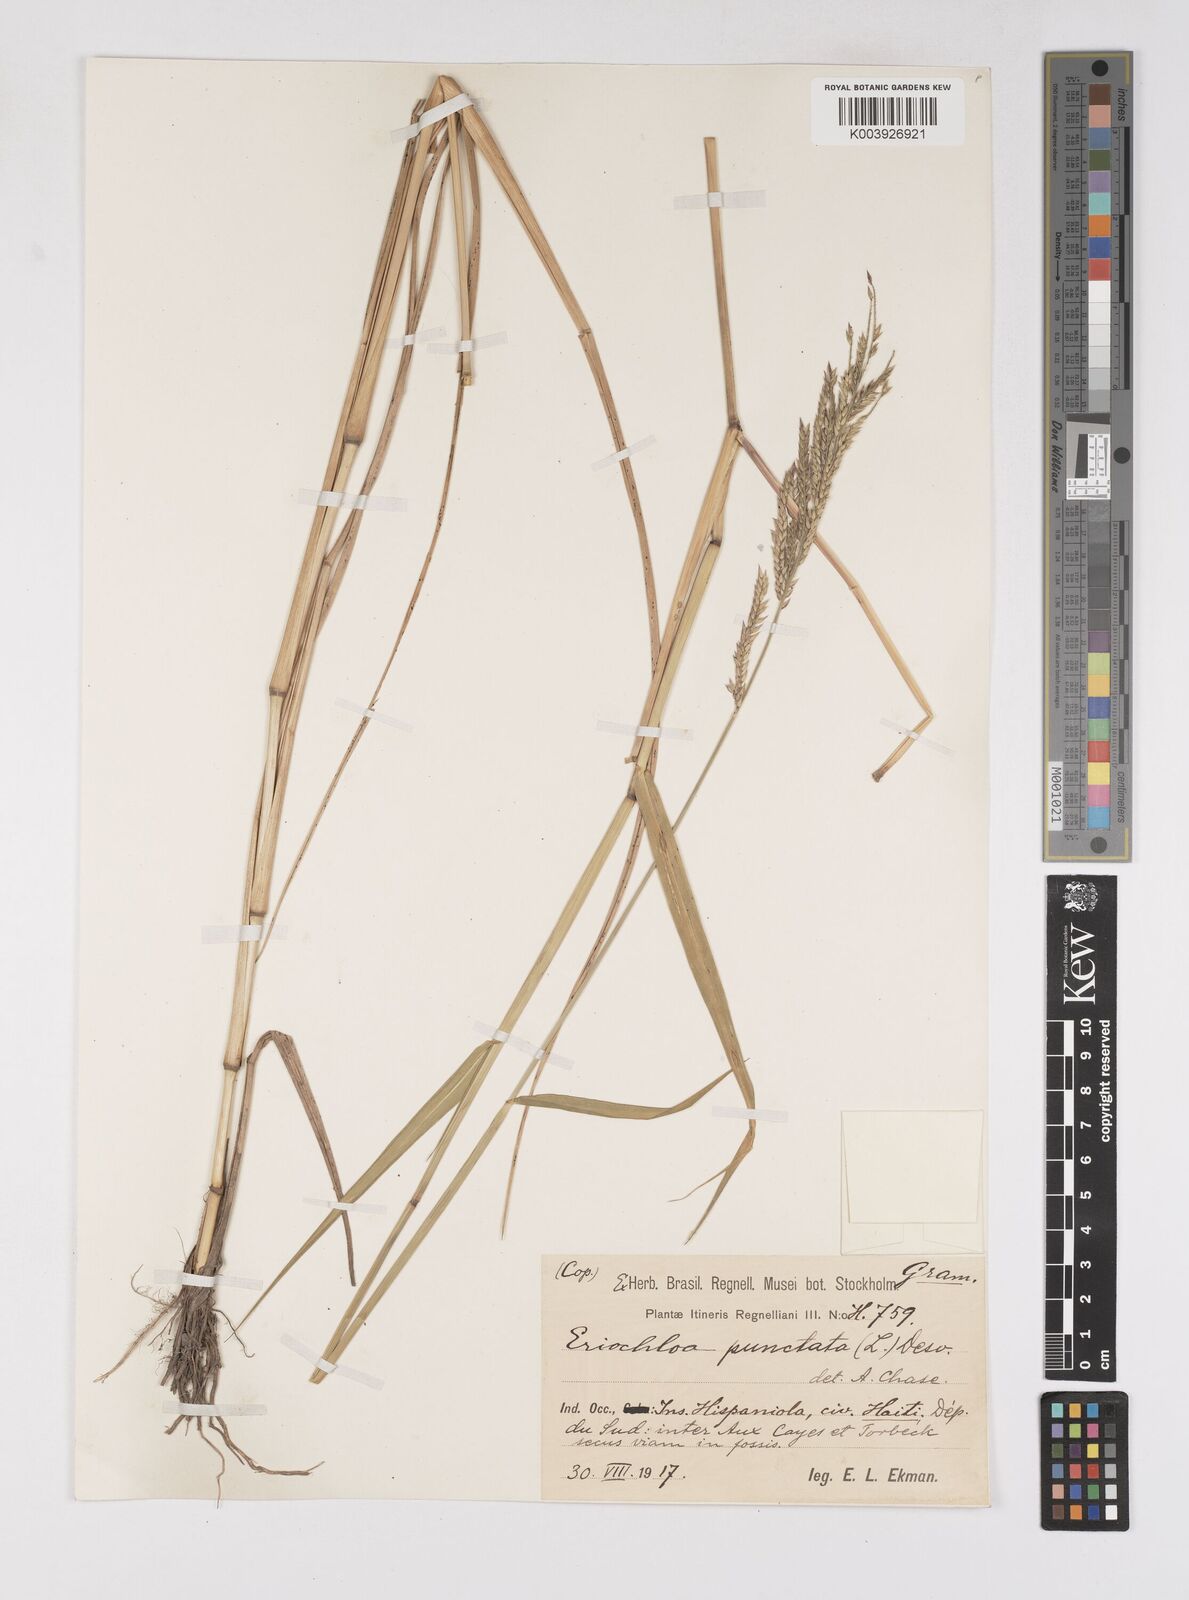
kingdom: Plantae
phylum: Tracheophyta
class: Liliopsida
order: Poales
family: Poaceae
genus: Eriochloa
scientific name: Eriochloa punctata
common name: Louisiana cupgrass
